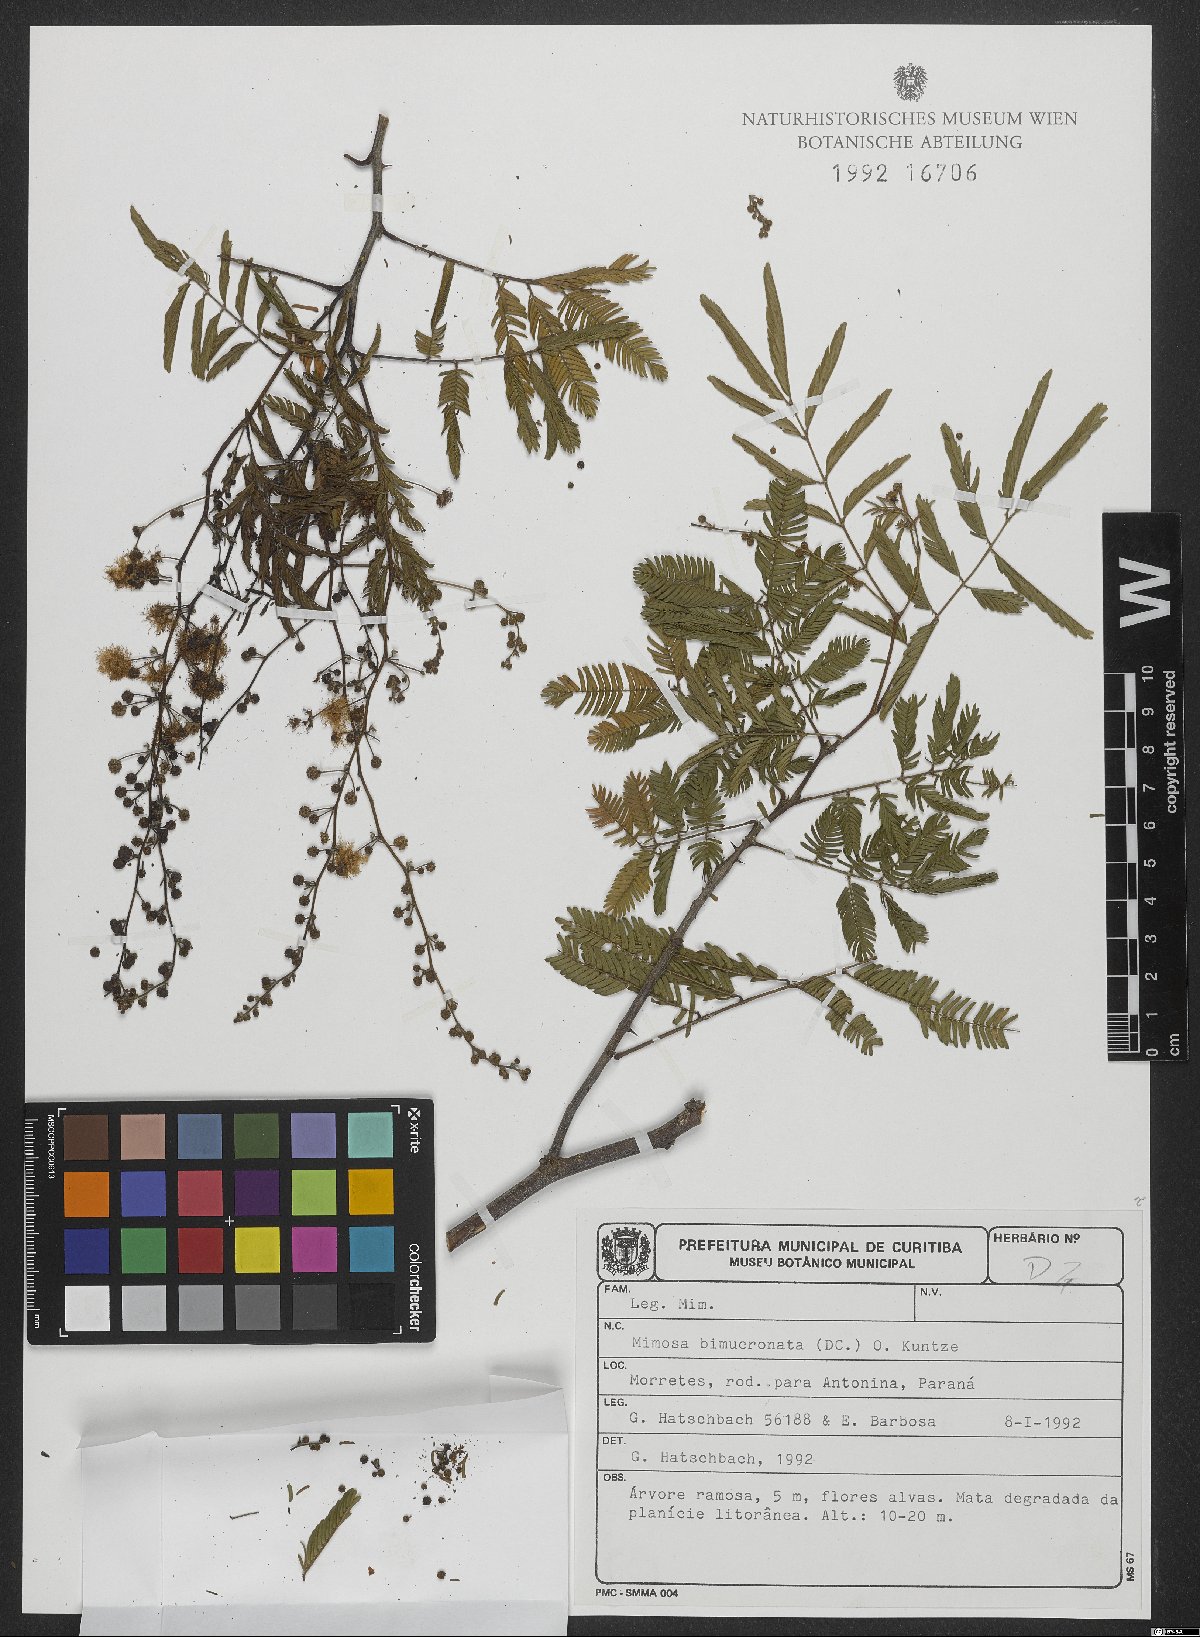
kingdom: Plantae
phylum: Tracheophyta
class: Magnoliopsida
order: Fabales
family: Fabaceae
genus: Mimosa
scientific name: Mimosa bimucronata
